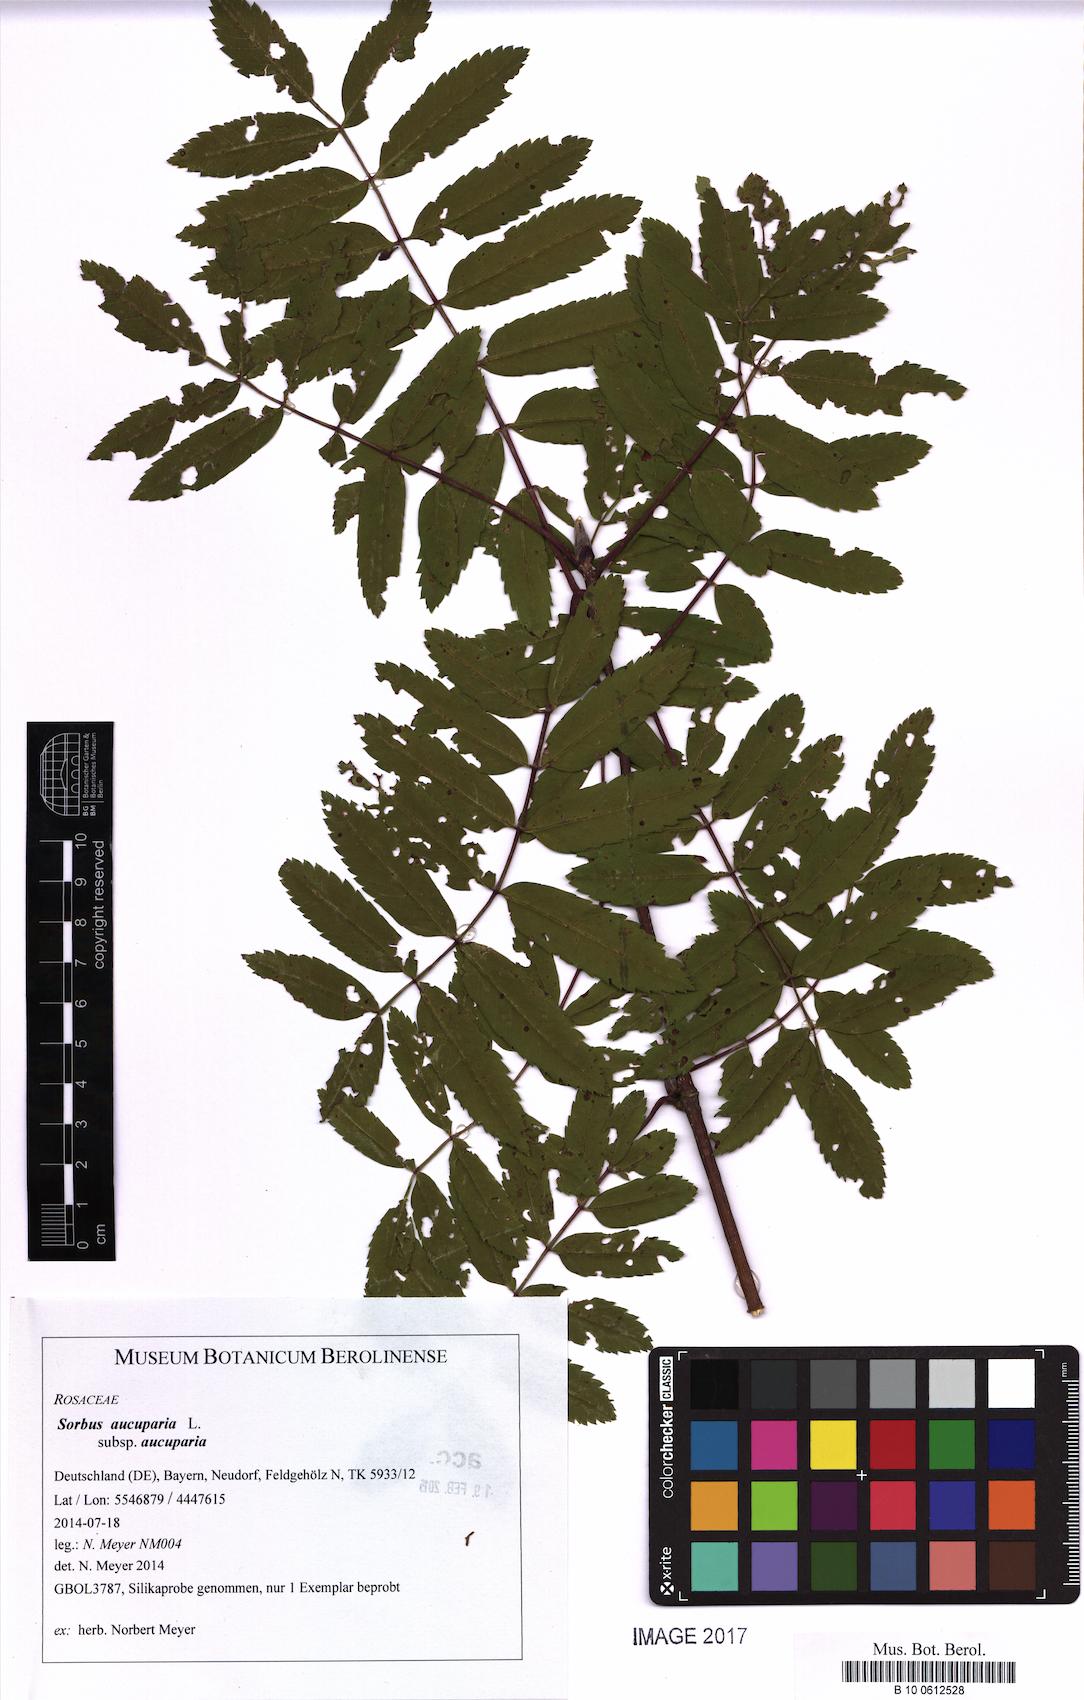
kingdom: Plantae
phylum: Tracheophyta
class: Magnoliopsida
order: Rosales
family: Rosaceae
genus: Sorbus
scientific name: Sorbus aucuparia
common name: Rowan
